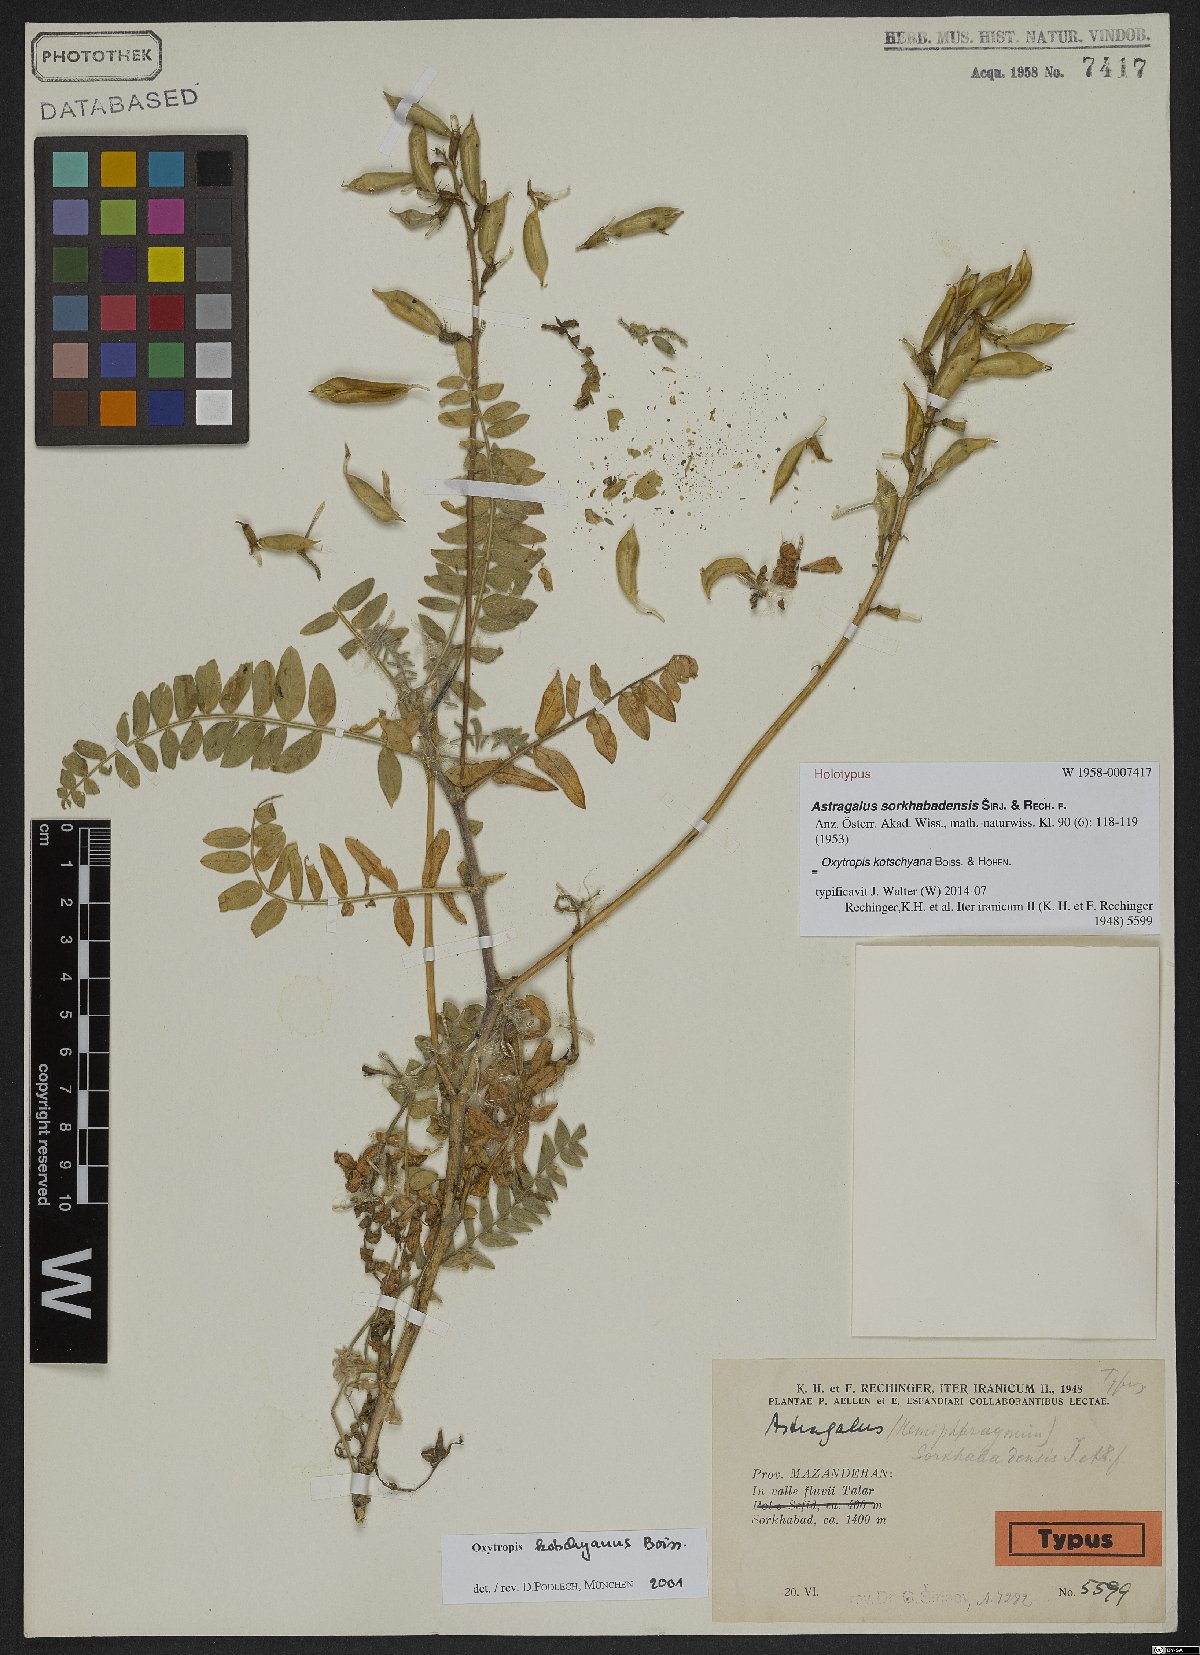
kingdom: Plantae
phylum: Tracheophyta
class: Magnoliopsida
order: Fabales
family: Fabaceae
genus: Oxytropis
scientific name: Oxytropis kotschyana
